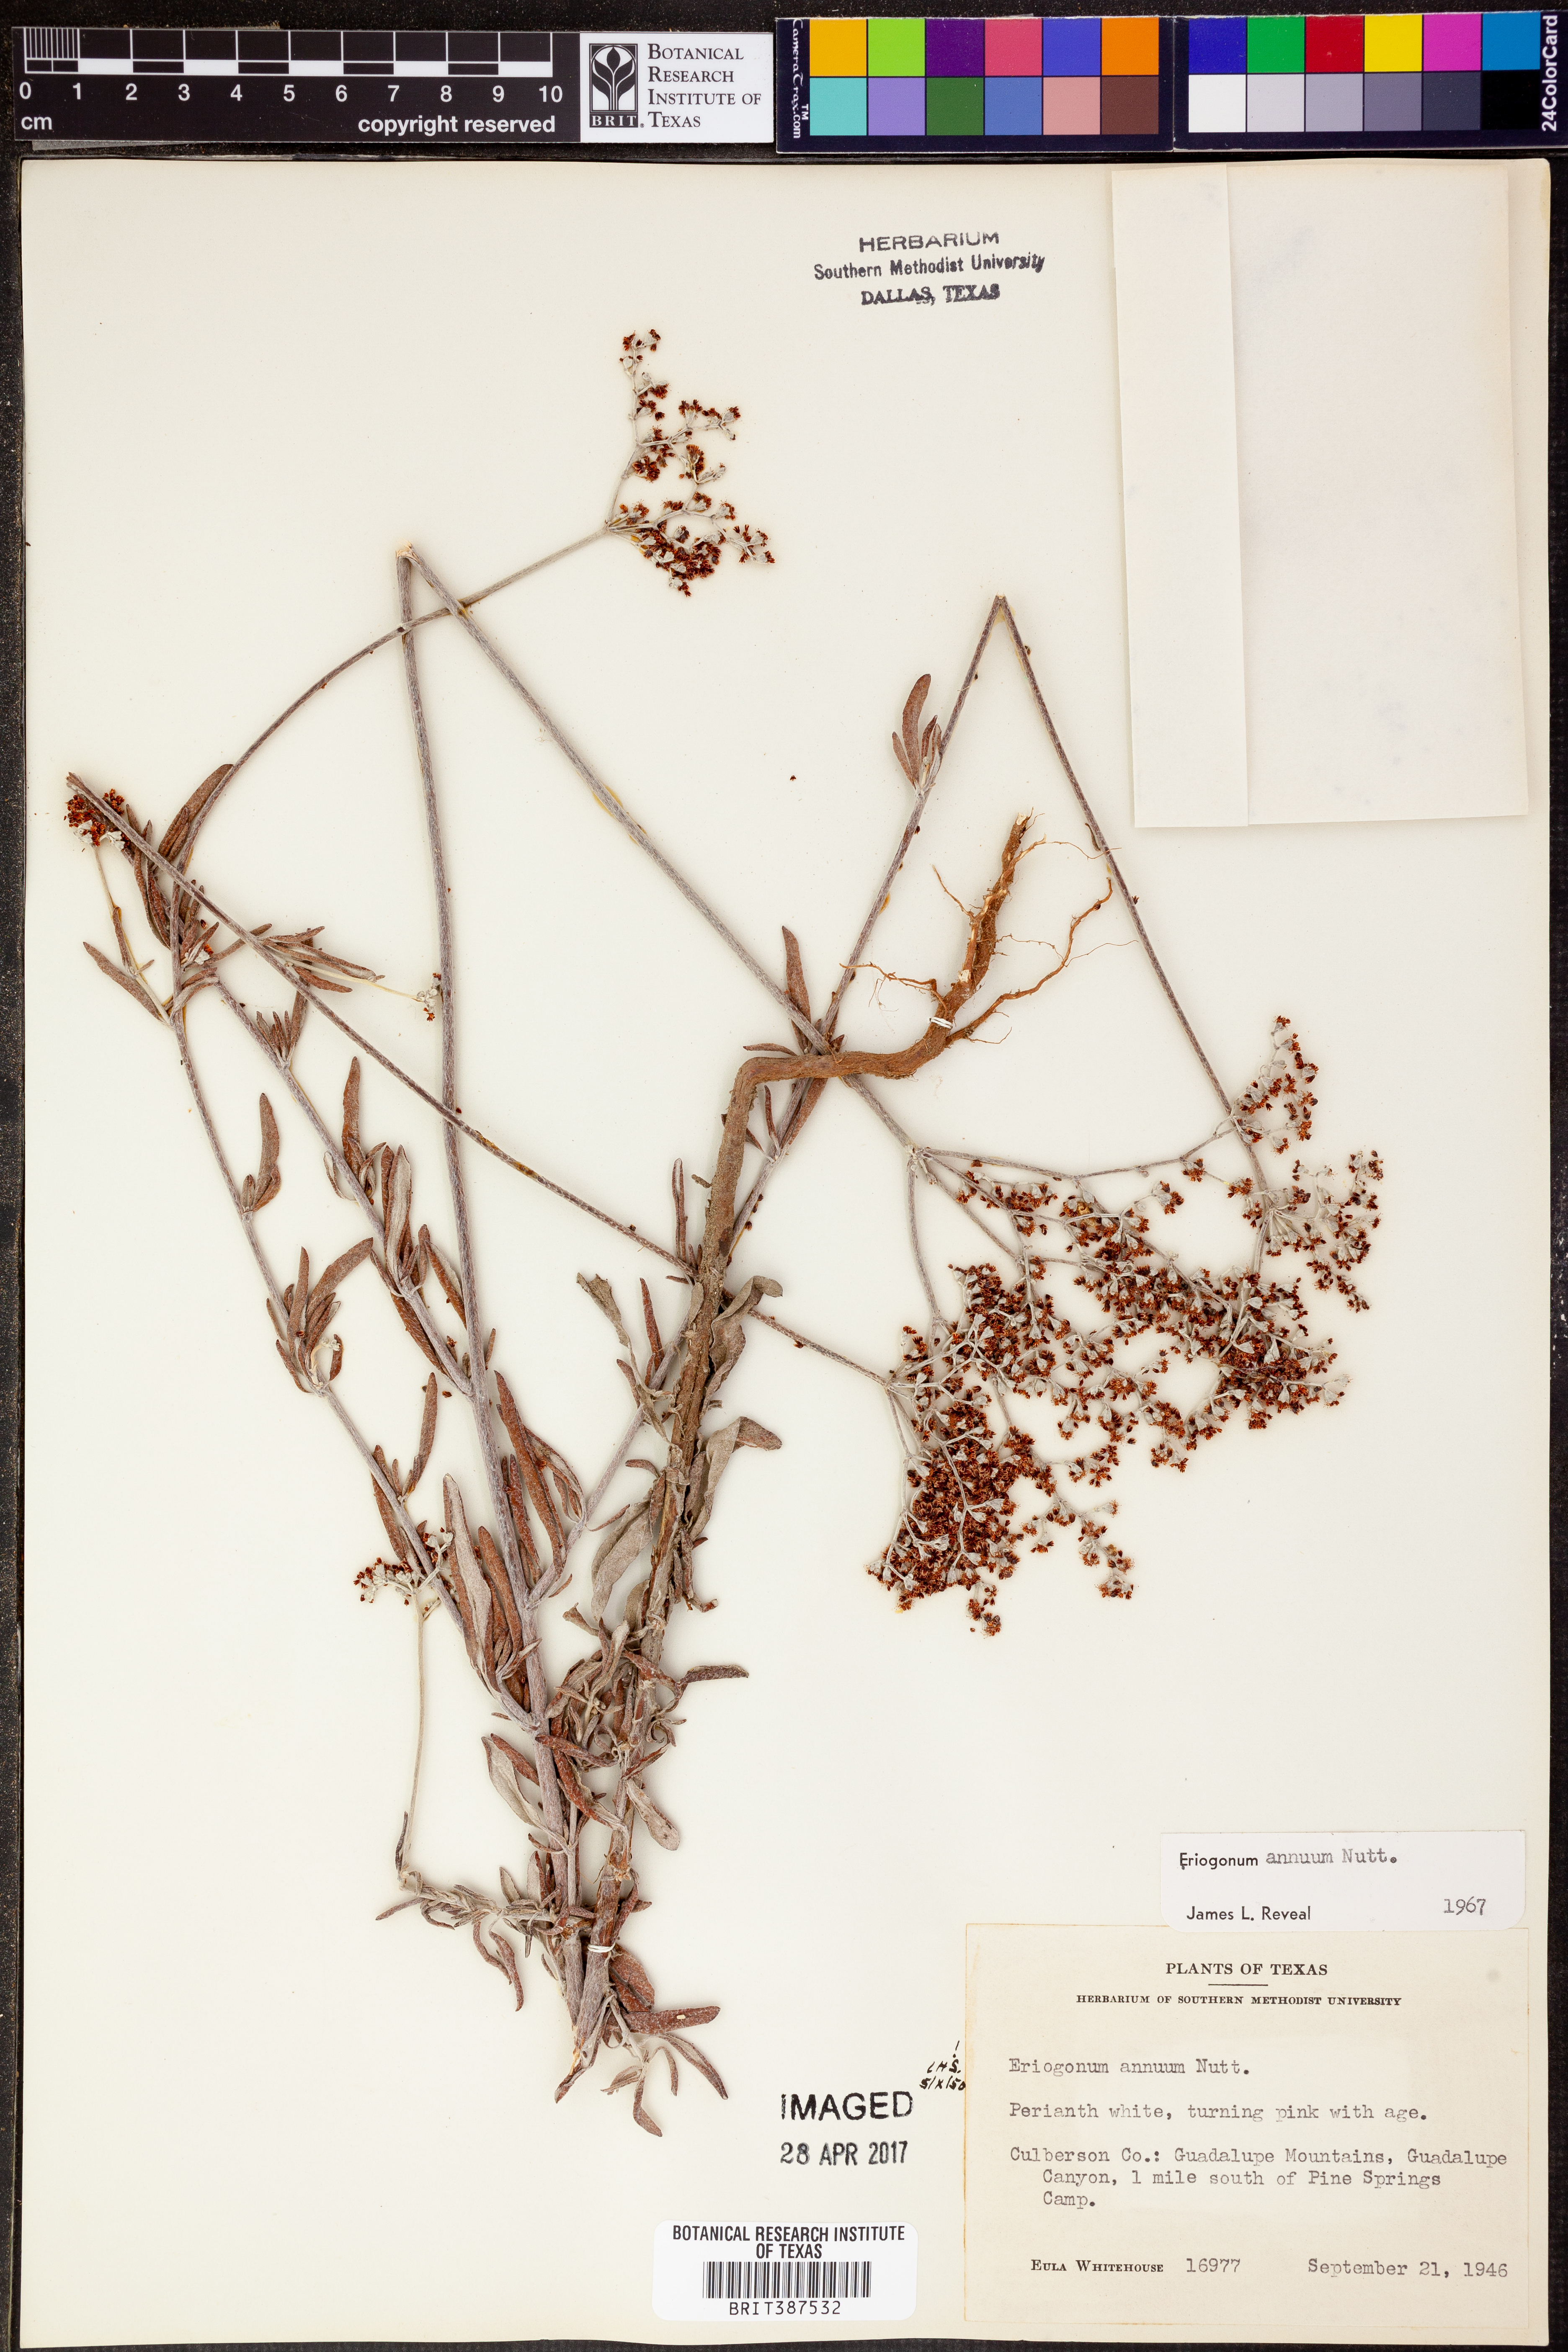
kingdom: Plantae
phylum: Tracheophyta
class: Magnoliopsida
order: Caryophyllales
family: Polygonaceae
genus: Eriogonum
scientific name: Eriogonum annuum
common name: Annual wild buckwheat
